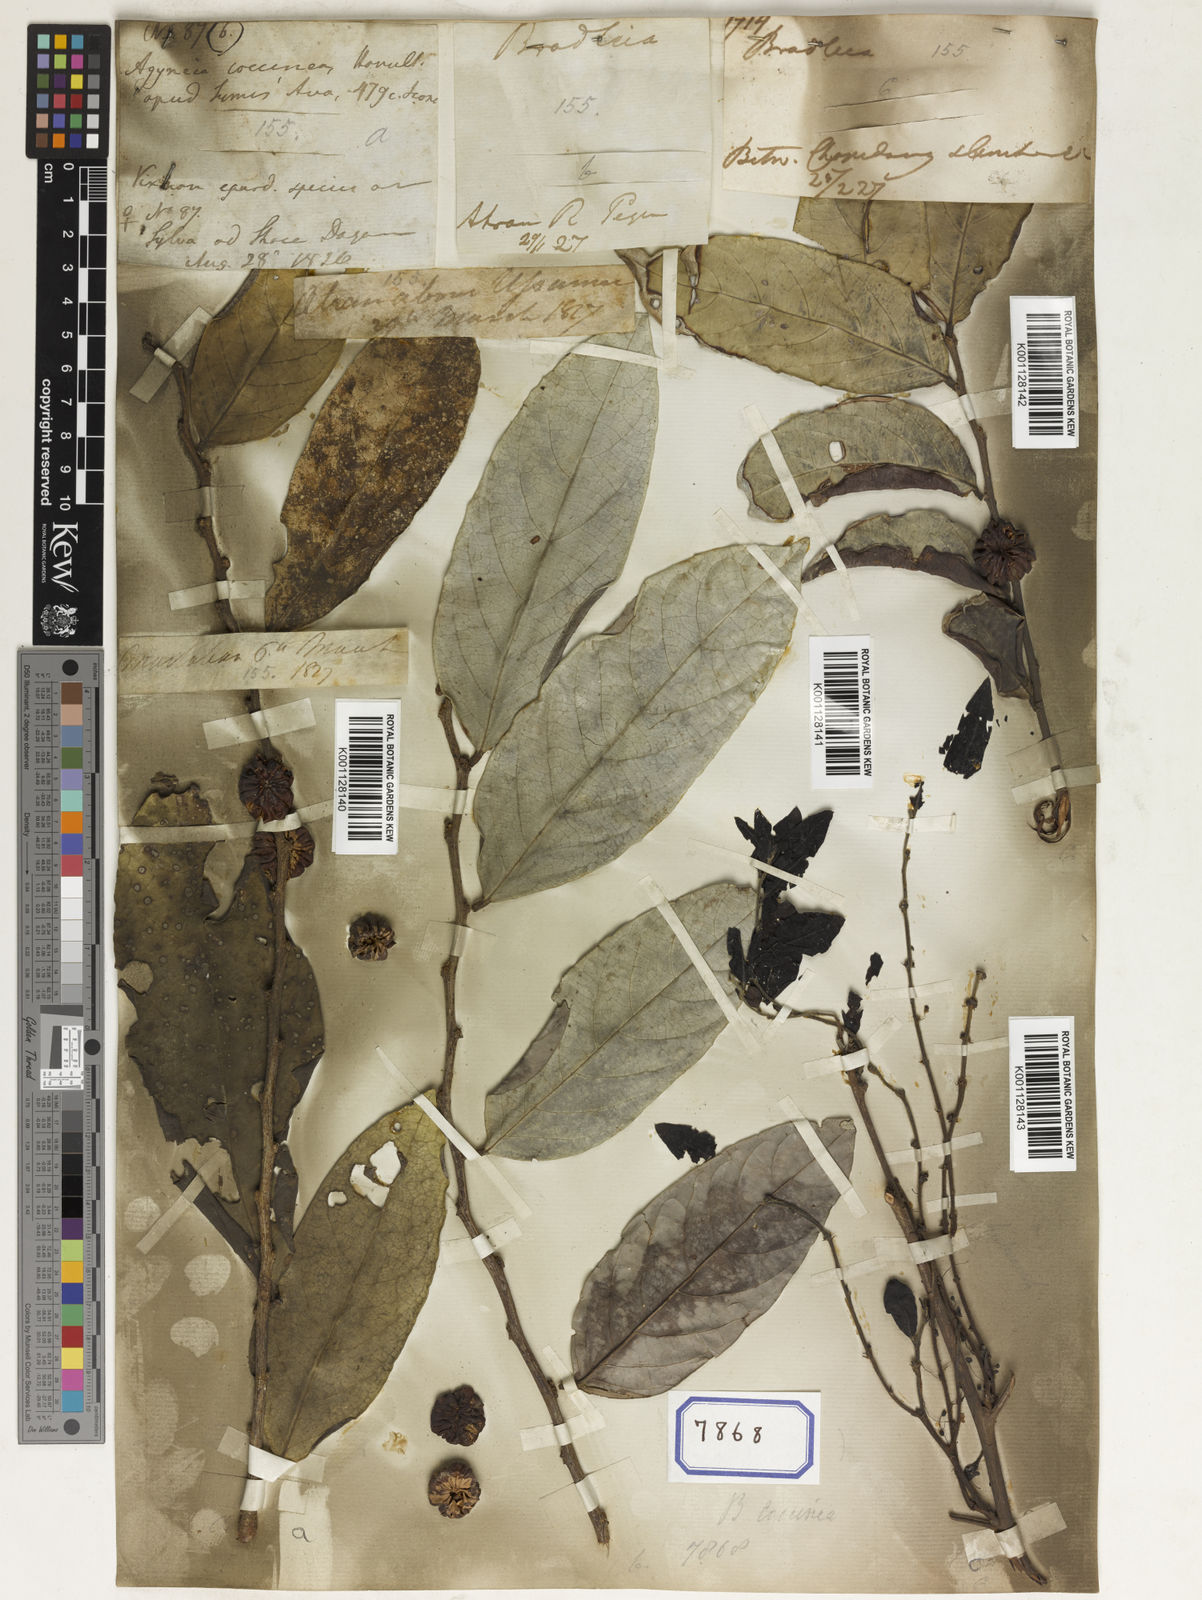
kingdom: Plantae
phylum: Tracheophyta
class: Magnoliopsida
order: Malpighiales
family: Euphorbiaceae
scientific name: Euphorbiaceae
